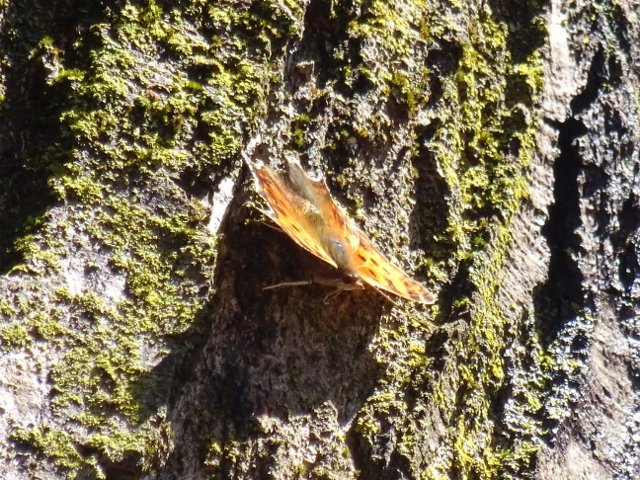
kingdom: Animalia
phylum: Arthropoda
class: Insecta
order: Lepidoptera
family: Nymphalidae
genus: Polygonia
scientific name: Polygonia
